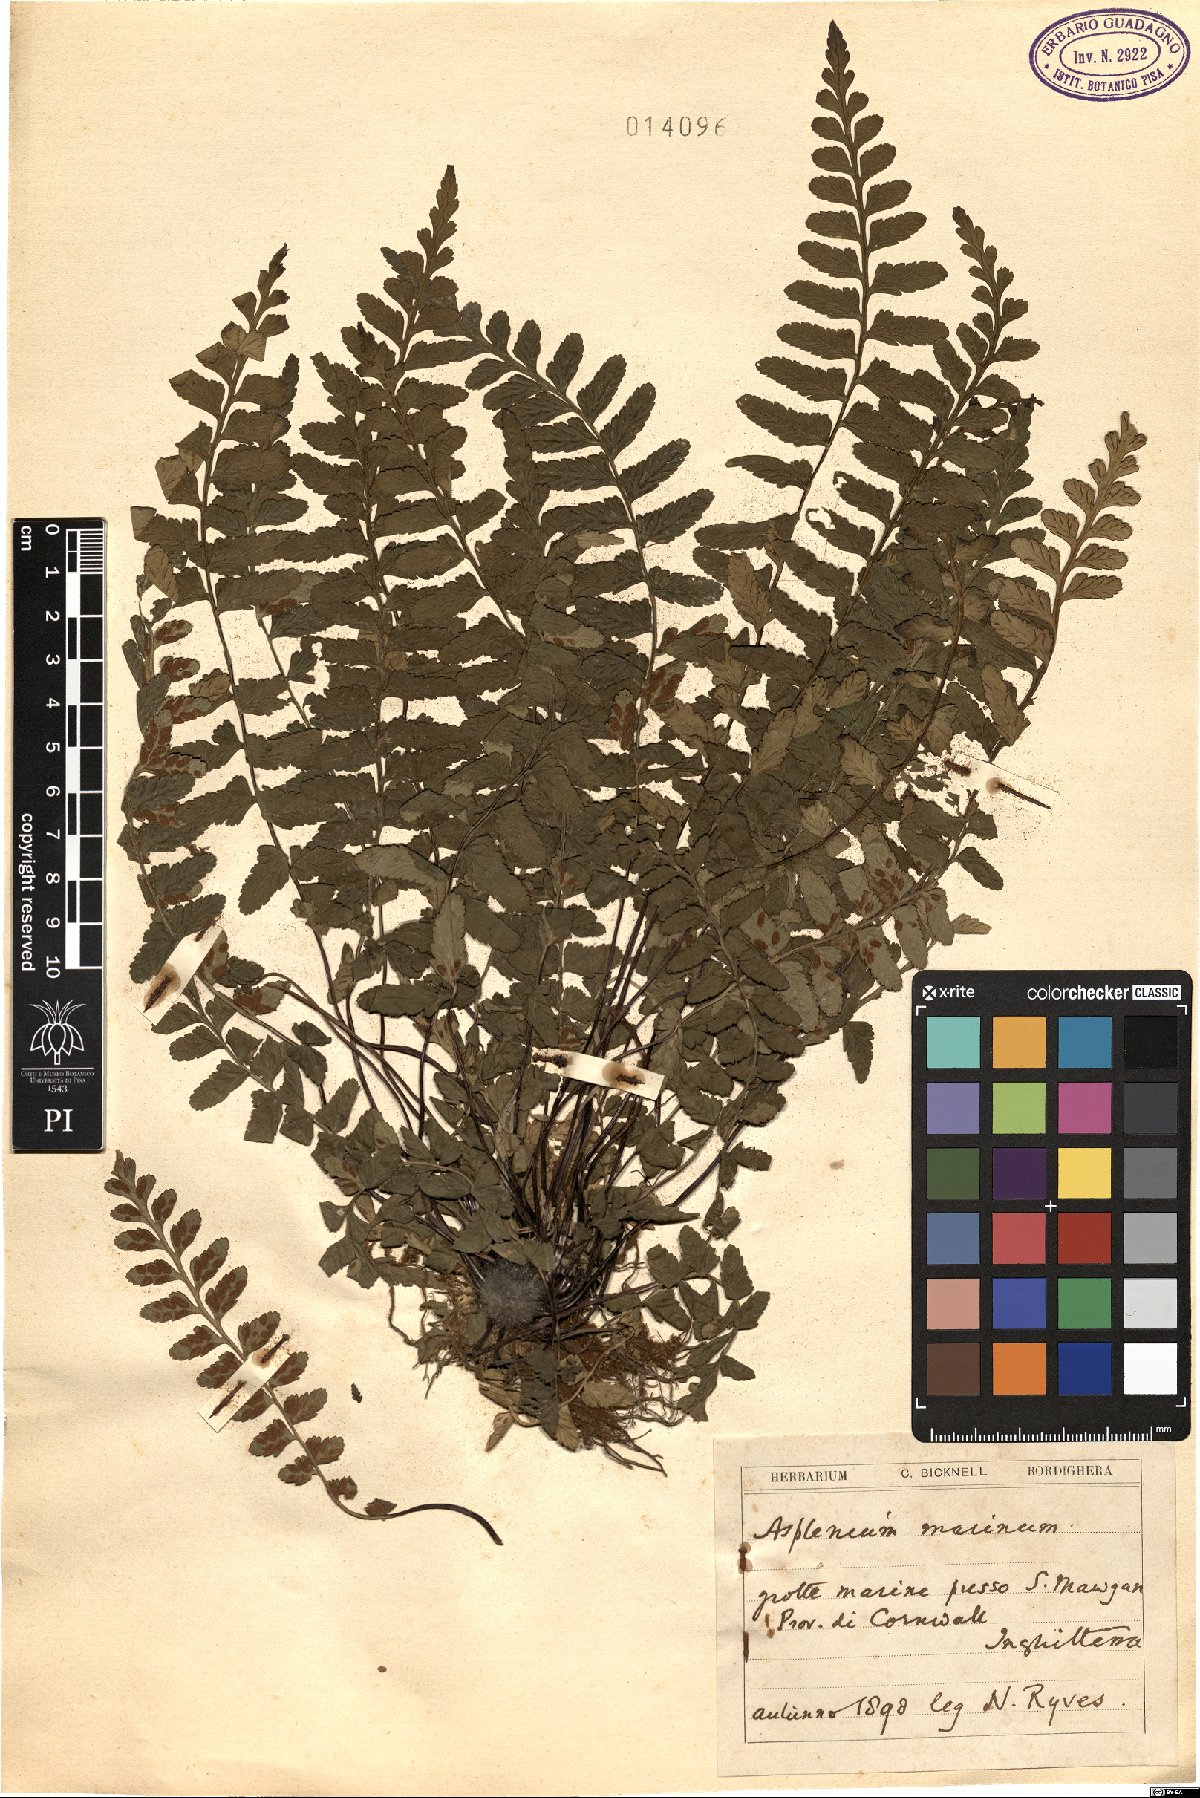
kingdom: Plantae
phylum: Tracheophyta
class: Polypodiopsida
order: Polypodiales
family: Aspleniaceae
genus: Asplenium
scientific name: Asplenium marinum
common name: Sea spleenwort
